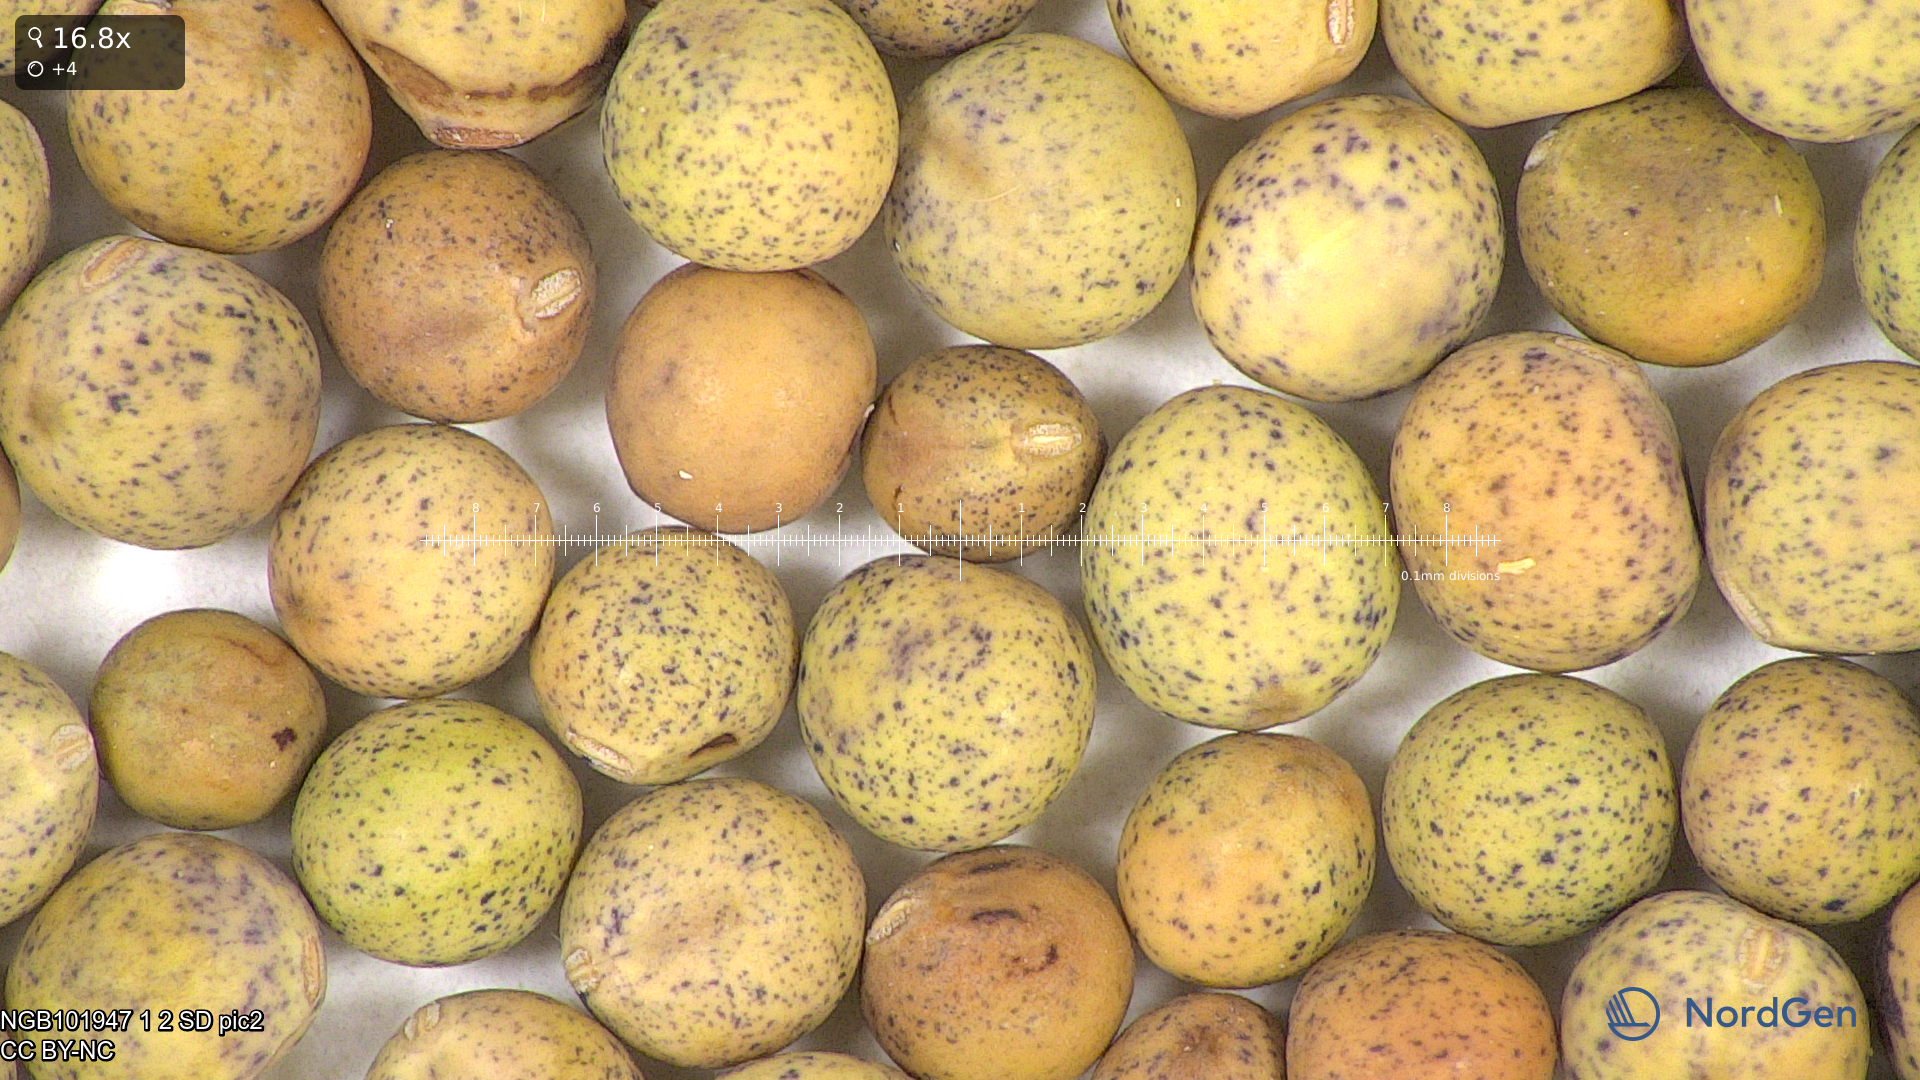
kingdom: Plantae
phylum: Tracheophyta
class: Magnoliopsida
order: Fabales
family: Fabaceae
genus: Lathyrus
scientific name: Lathyrus oleraceus
